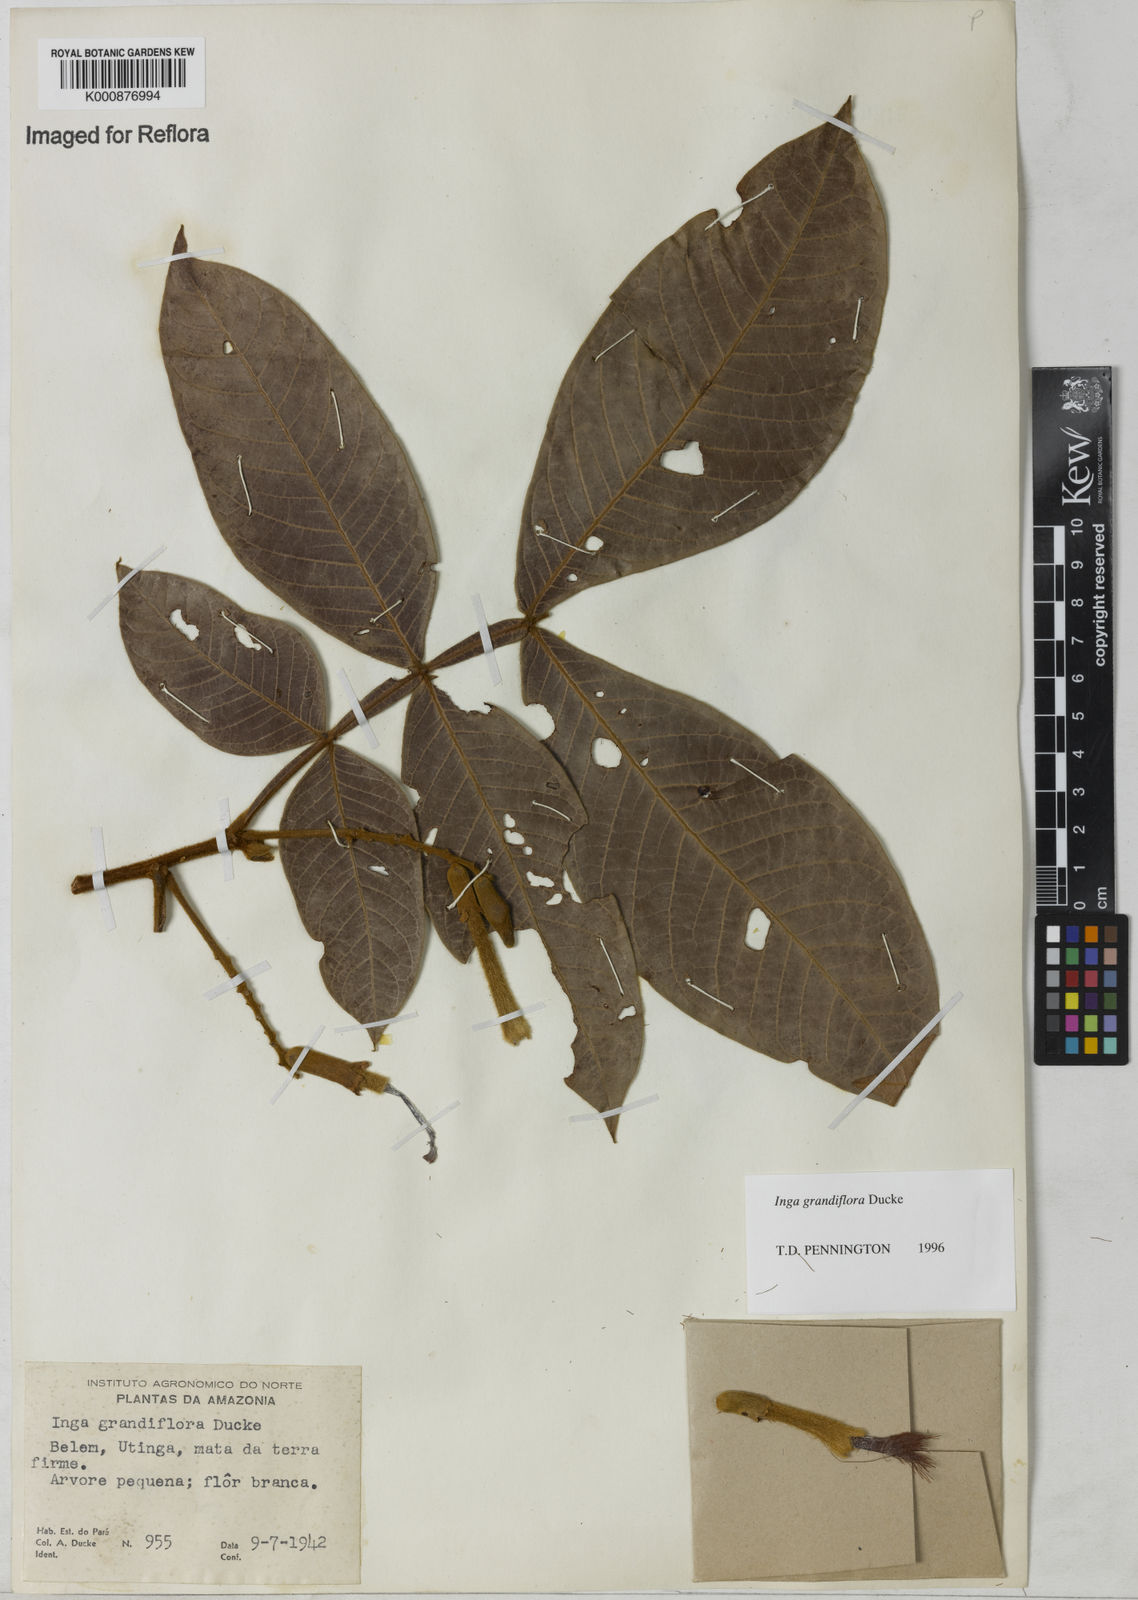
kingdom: Plantae
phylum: Tracheophyta
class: Magnoliopsida
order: Fabales
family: Fabaceae
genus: Inga
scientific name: Inga crassiflora
